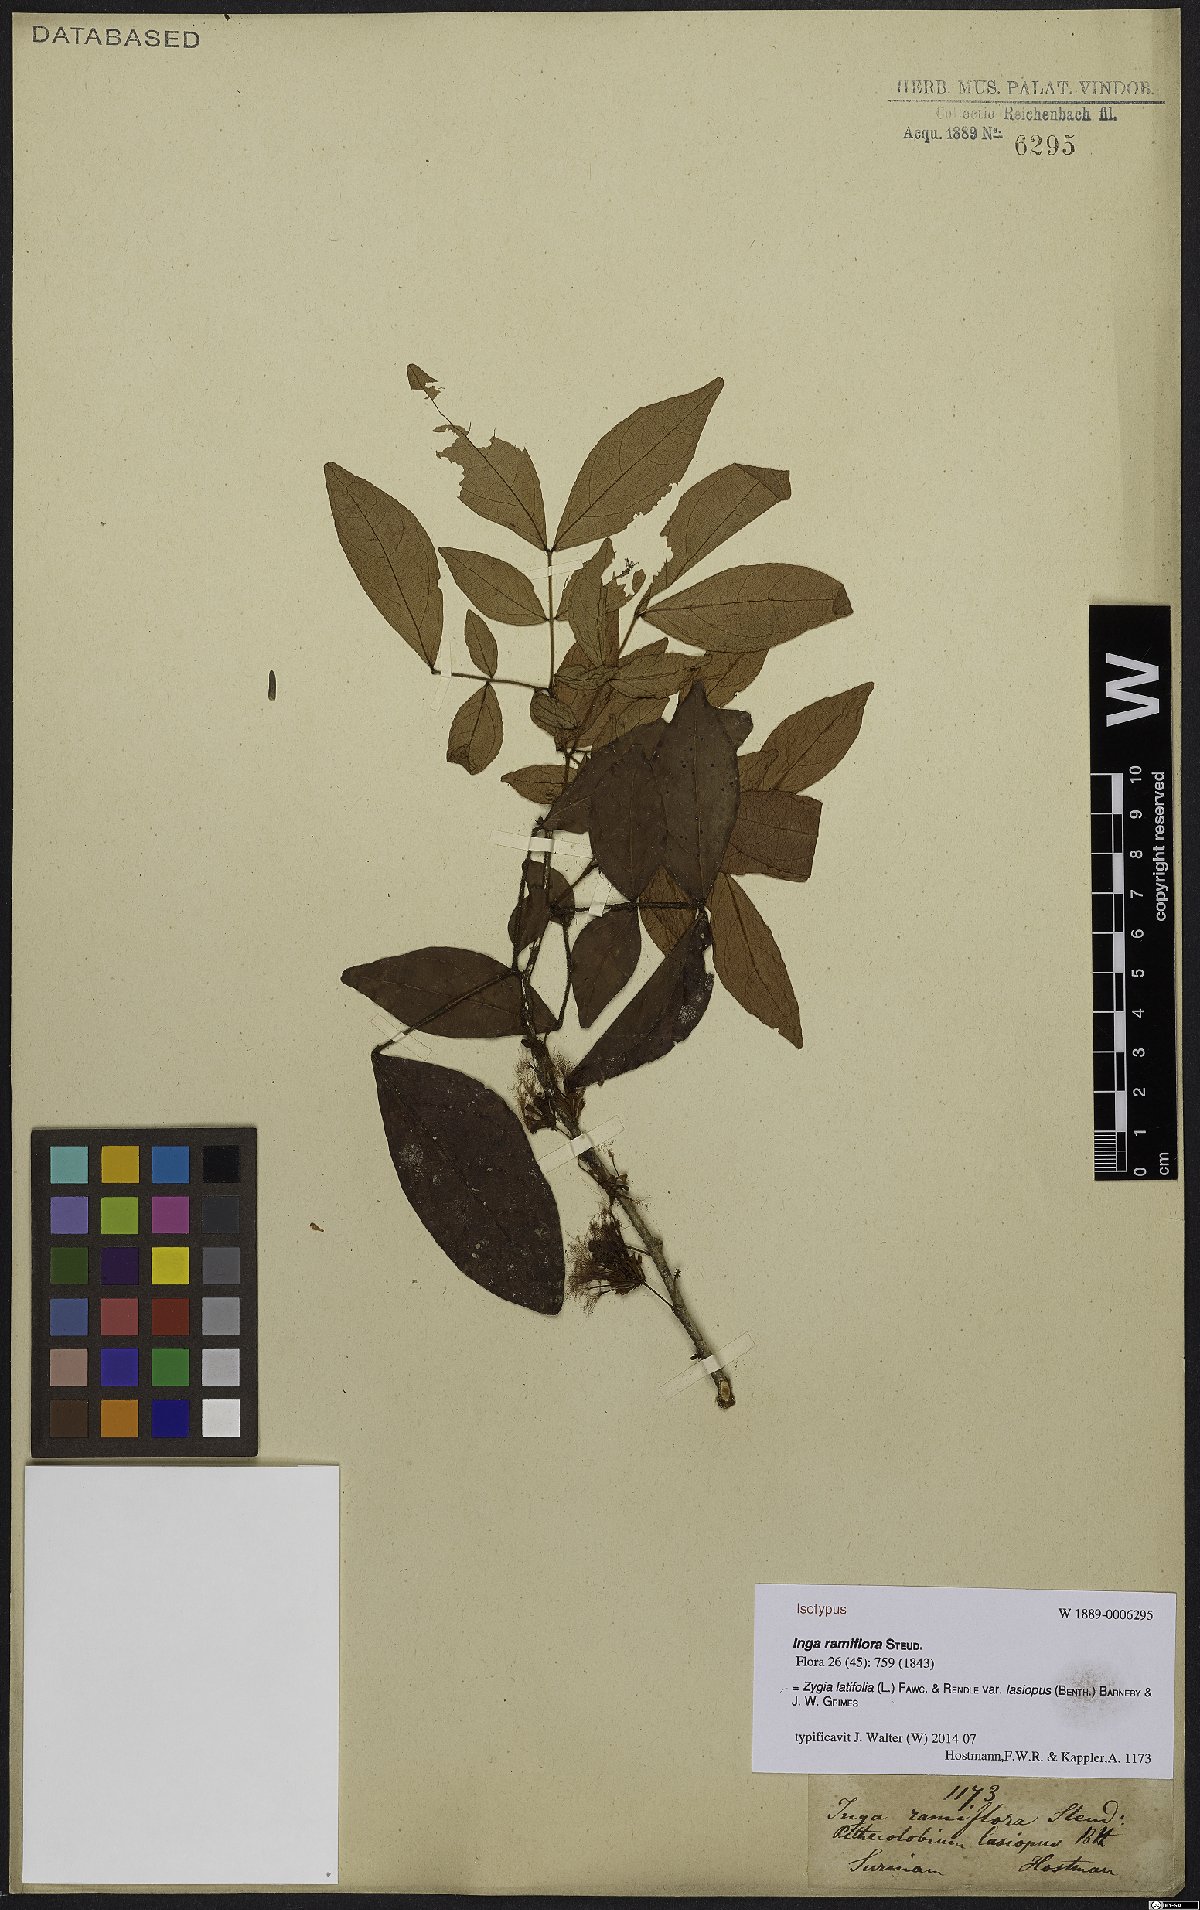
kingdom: Plantae
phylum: Tracheophyta
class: Magnoliopsida
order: Fabales
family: Fabaceae
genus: Zygia
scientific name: Zygia latifolia
